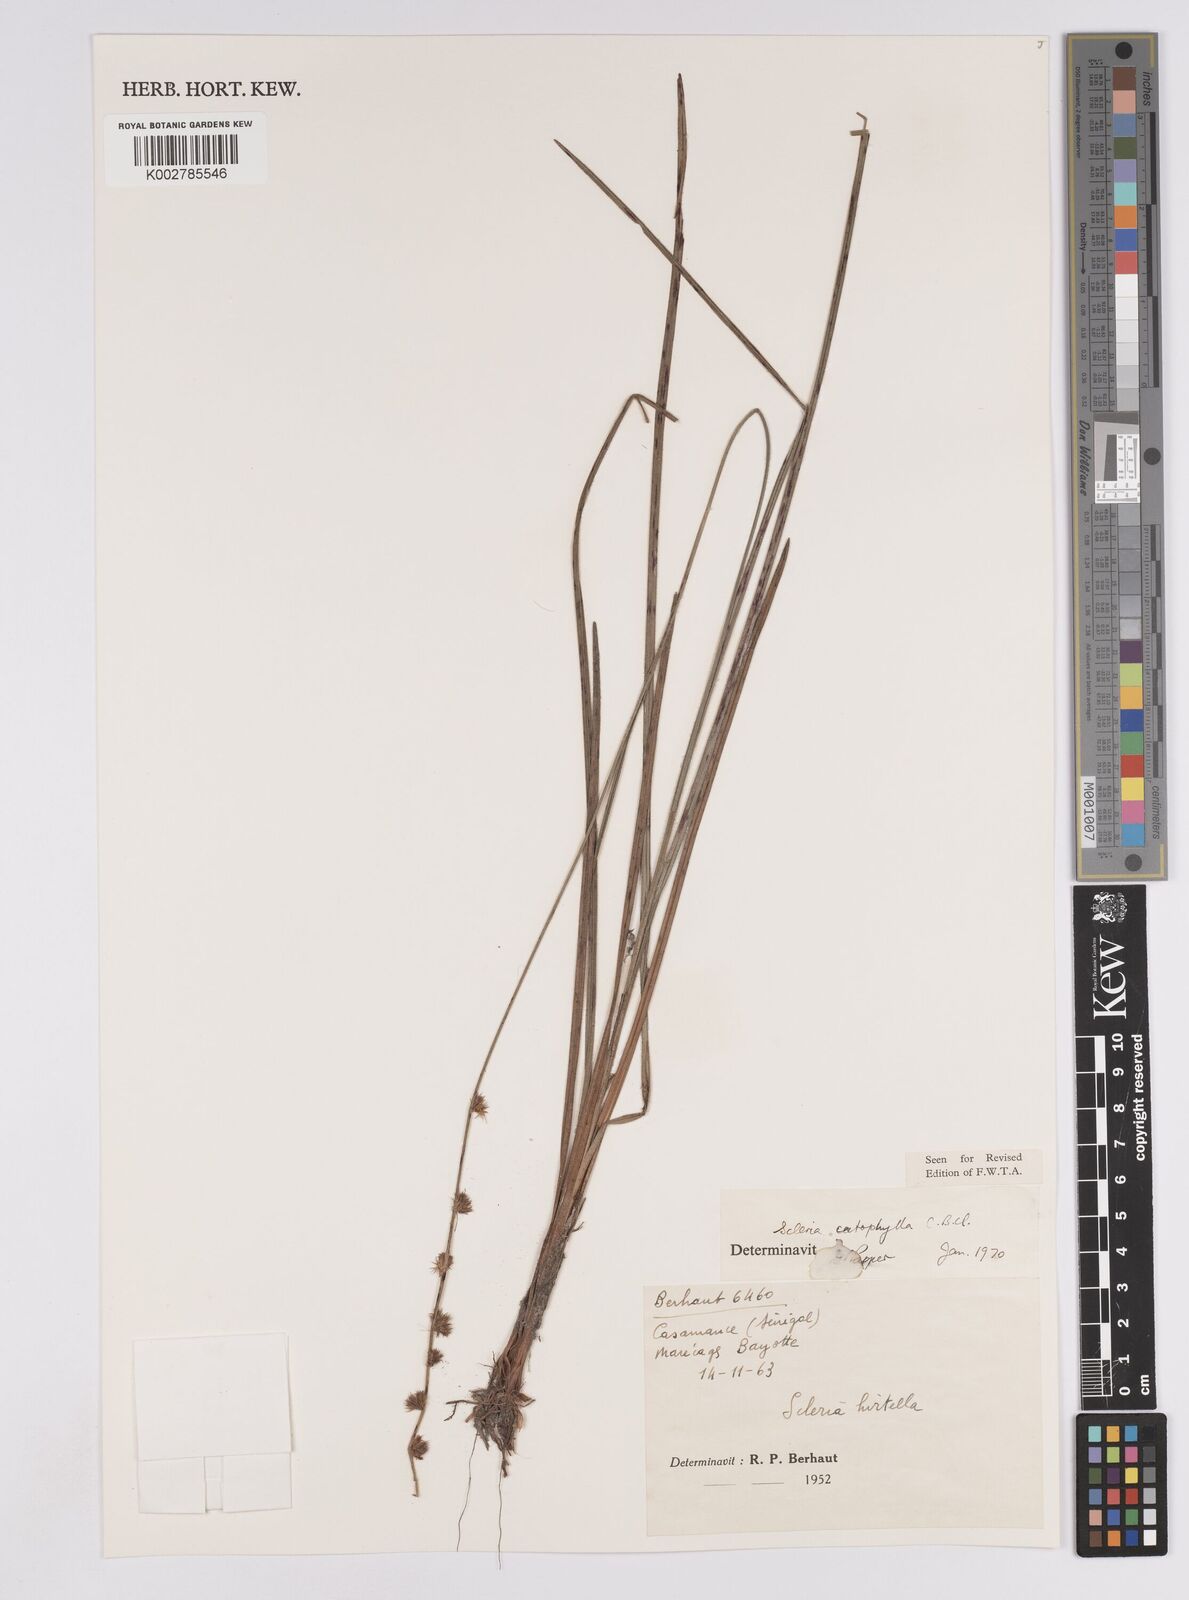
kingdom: Plantae
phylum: Tracheophyta
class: Liliopsida
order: Poales
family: Cyperaceae
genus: Scleria
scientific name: Scleria catophylla
